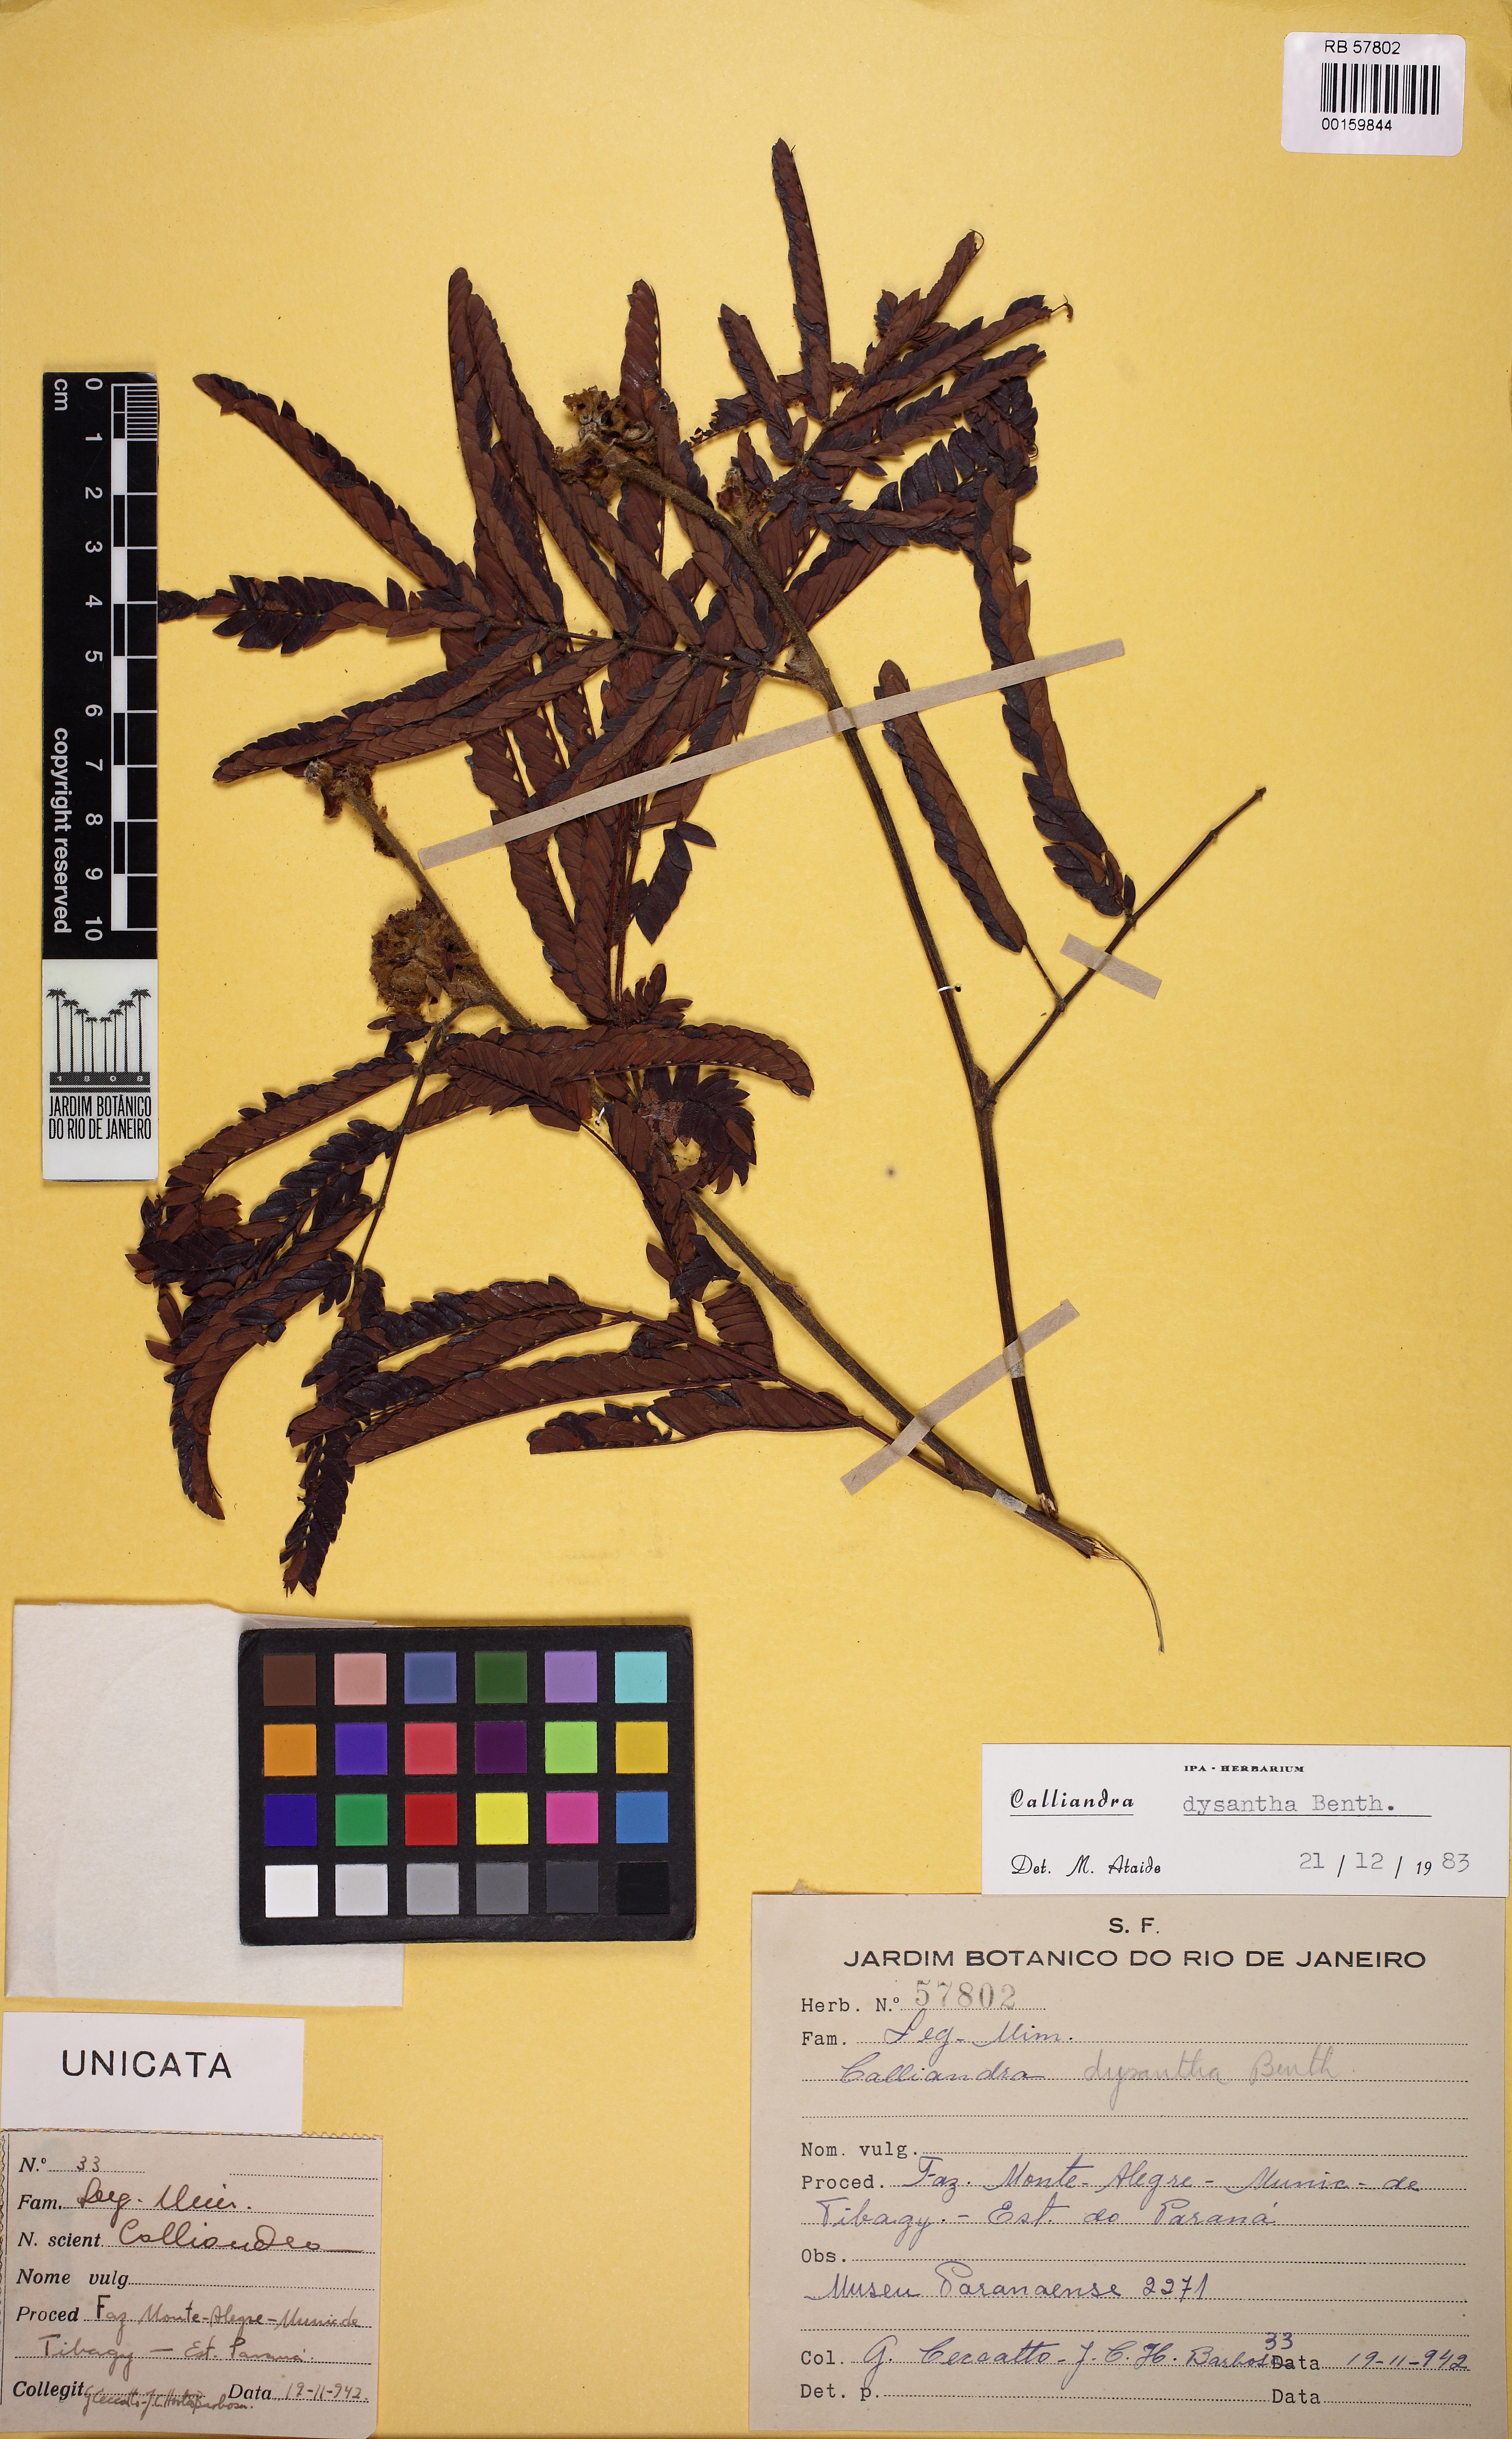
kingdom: Plantae
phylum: Tracheophyta
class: Magnoliopsida
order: Fabales
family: Fabaceae
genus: Calliandra
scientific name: Calliandra dysantha
